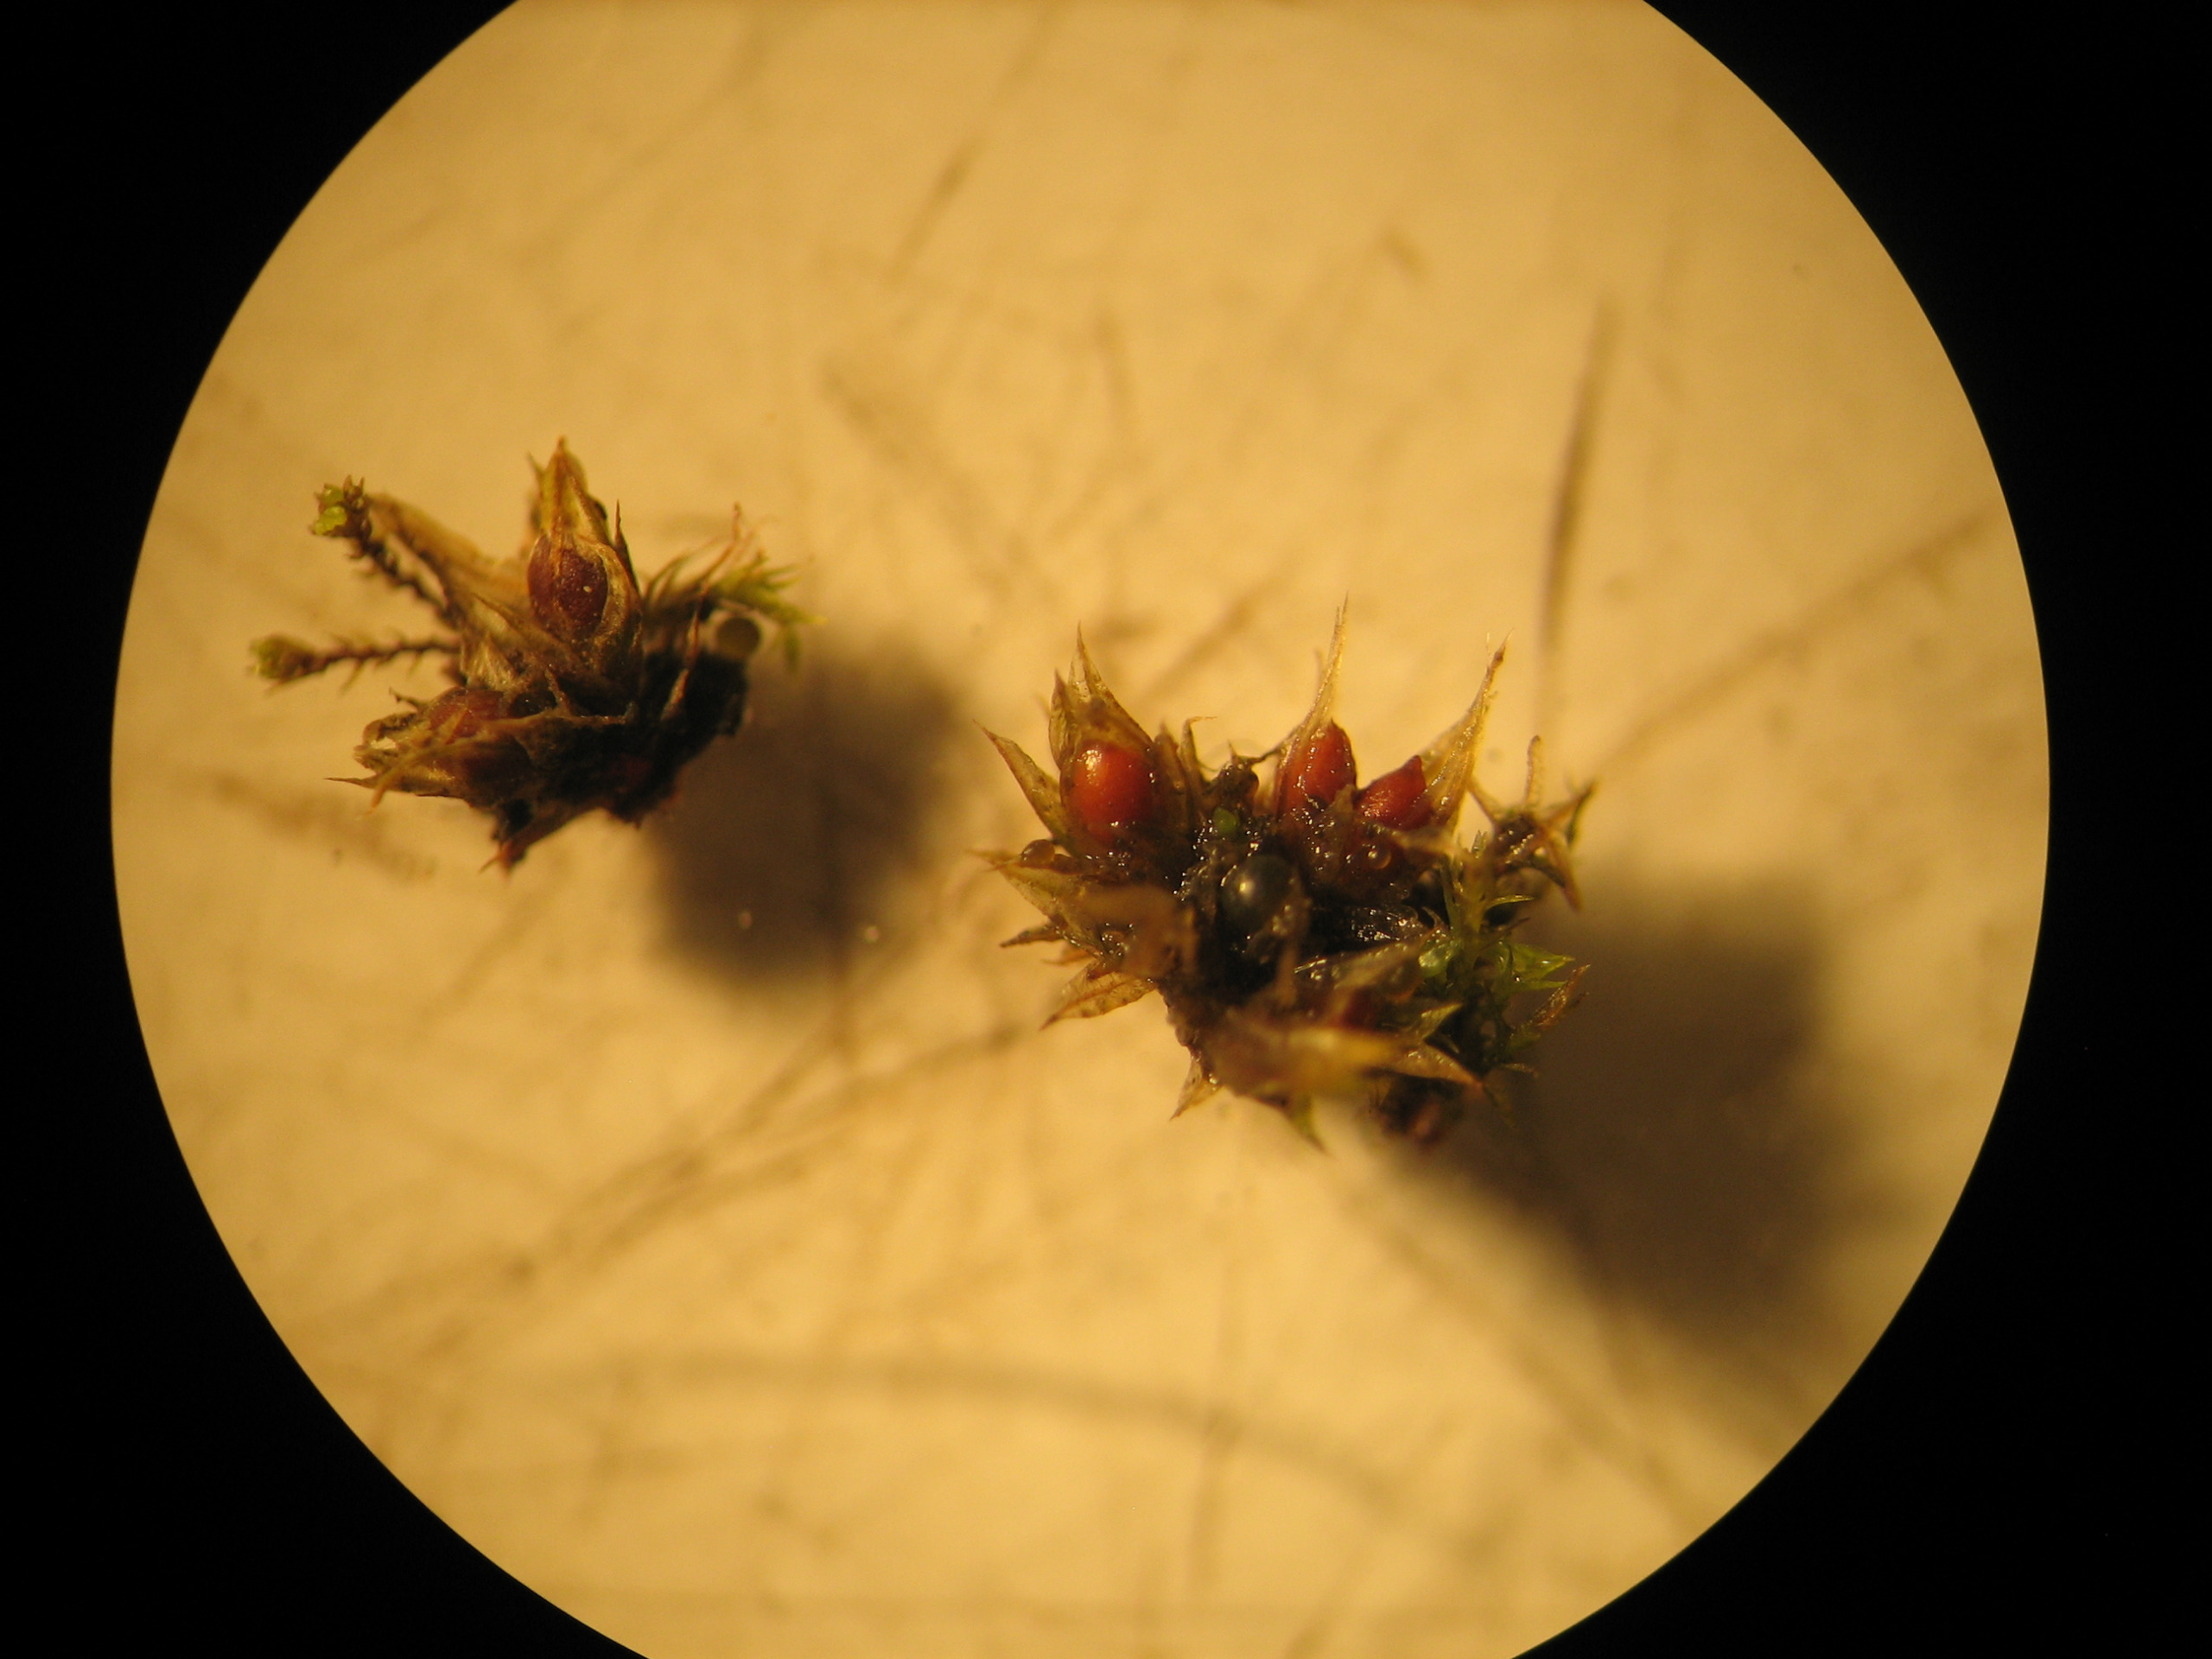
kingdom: Plantae
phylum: Bryophyta
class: Bryopsida
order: Pottiales
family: Pottiaceae
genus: Tortula
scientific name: Tortula acaulon
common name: Tilspidset dværgmos
